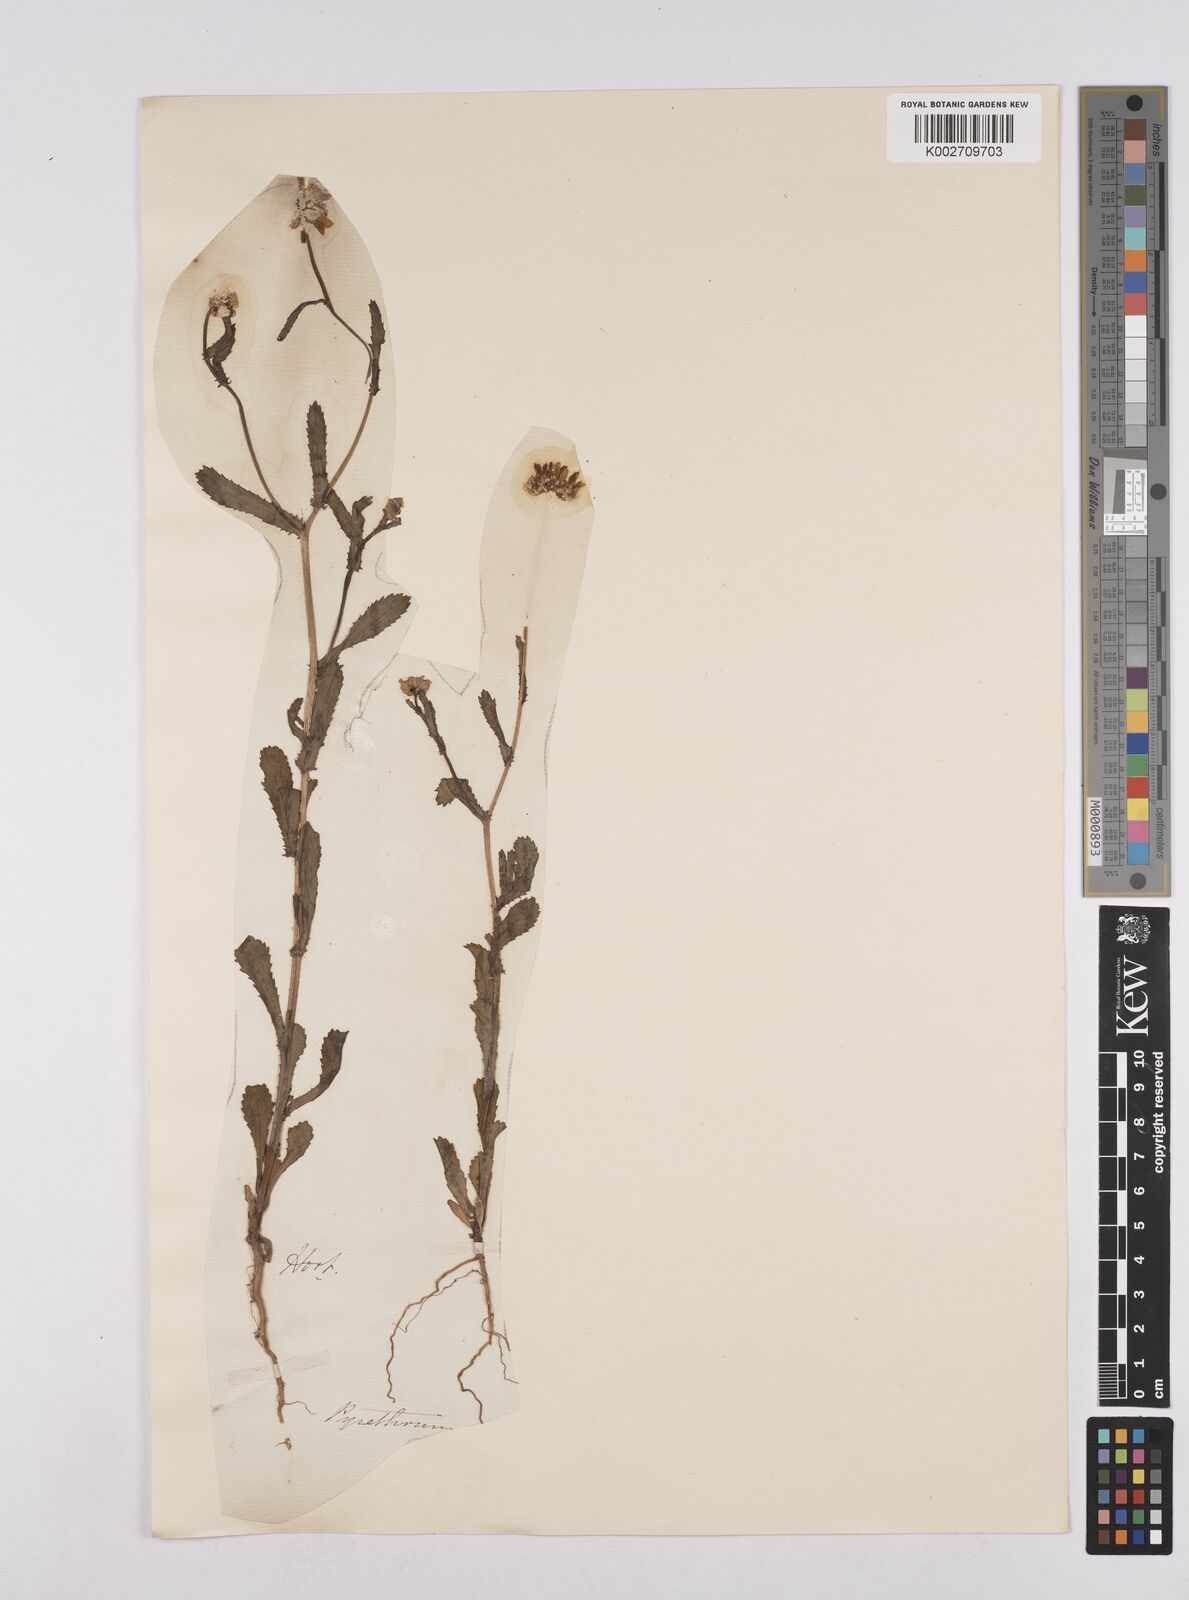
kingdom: Plantae
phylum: Tracheophyta
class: Magnoliopsida
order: Asterales
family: Asteraceae
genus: Coleostephus
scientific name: Coleostephus myconis
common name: Mediterranean marigold
